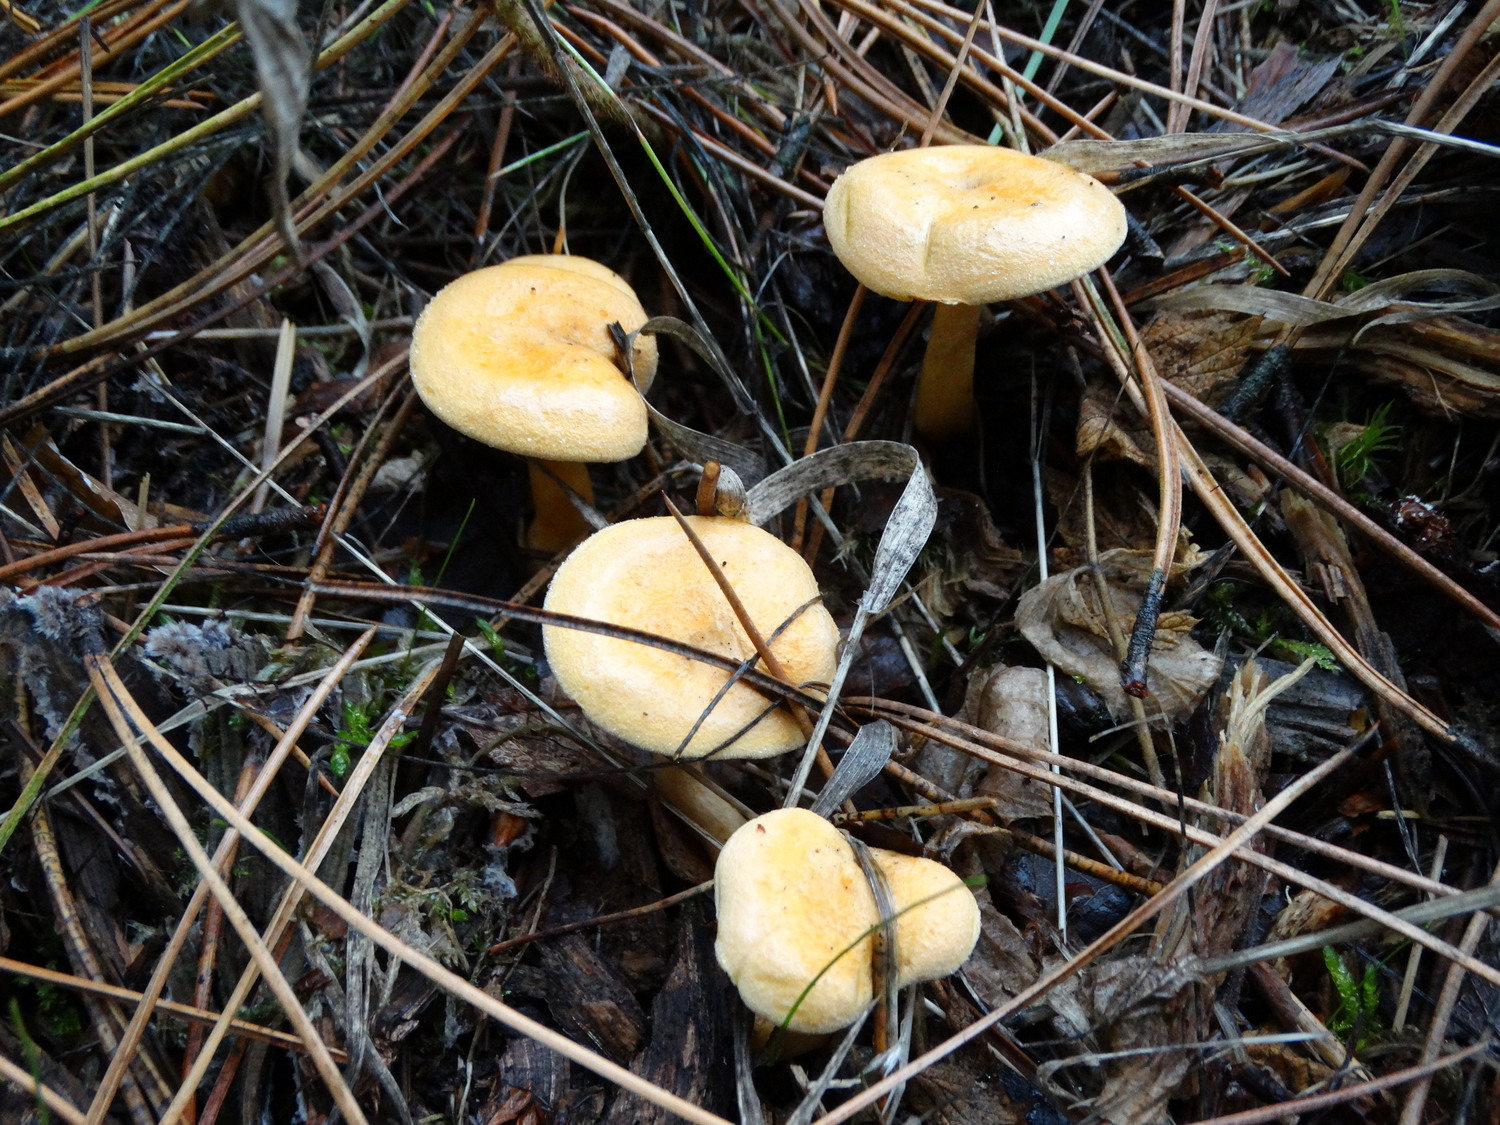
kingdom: Fungi
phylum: Basidiomycota
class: Agaricomycetes
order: Boletales
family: Hygrophoropsidaceae
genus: Hygrophoropsis
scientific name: Hygrophoropsis aurantiaca
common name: almindelig orangekantarel
